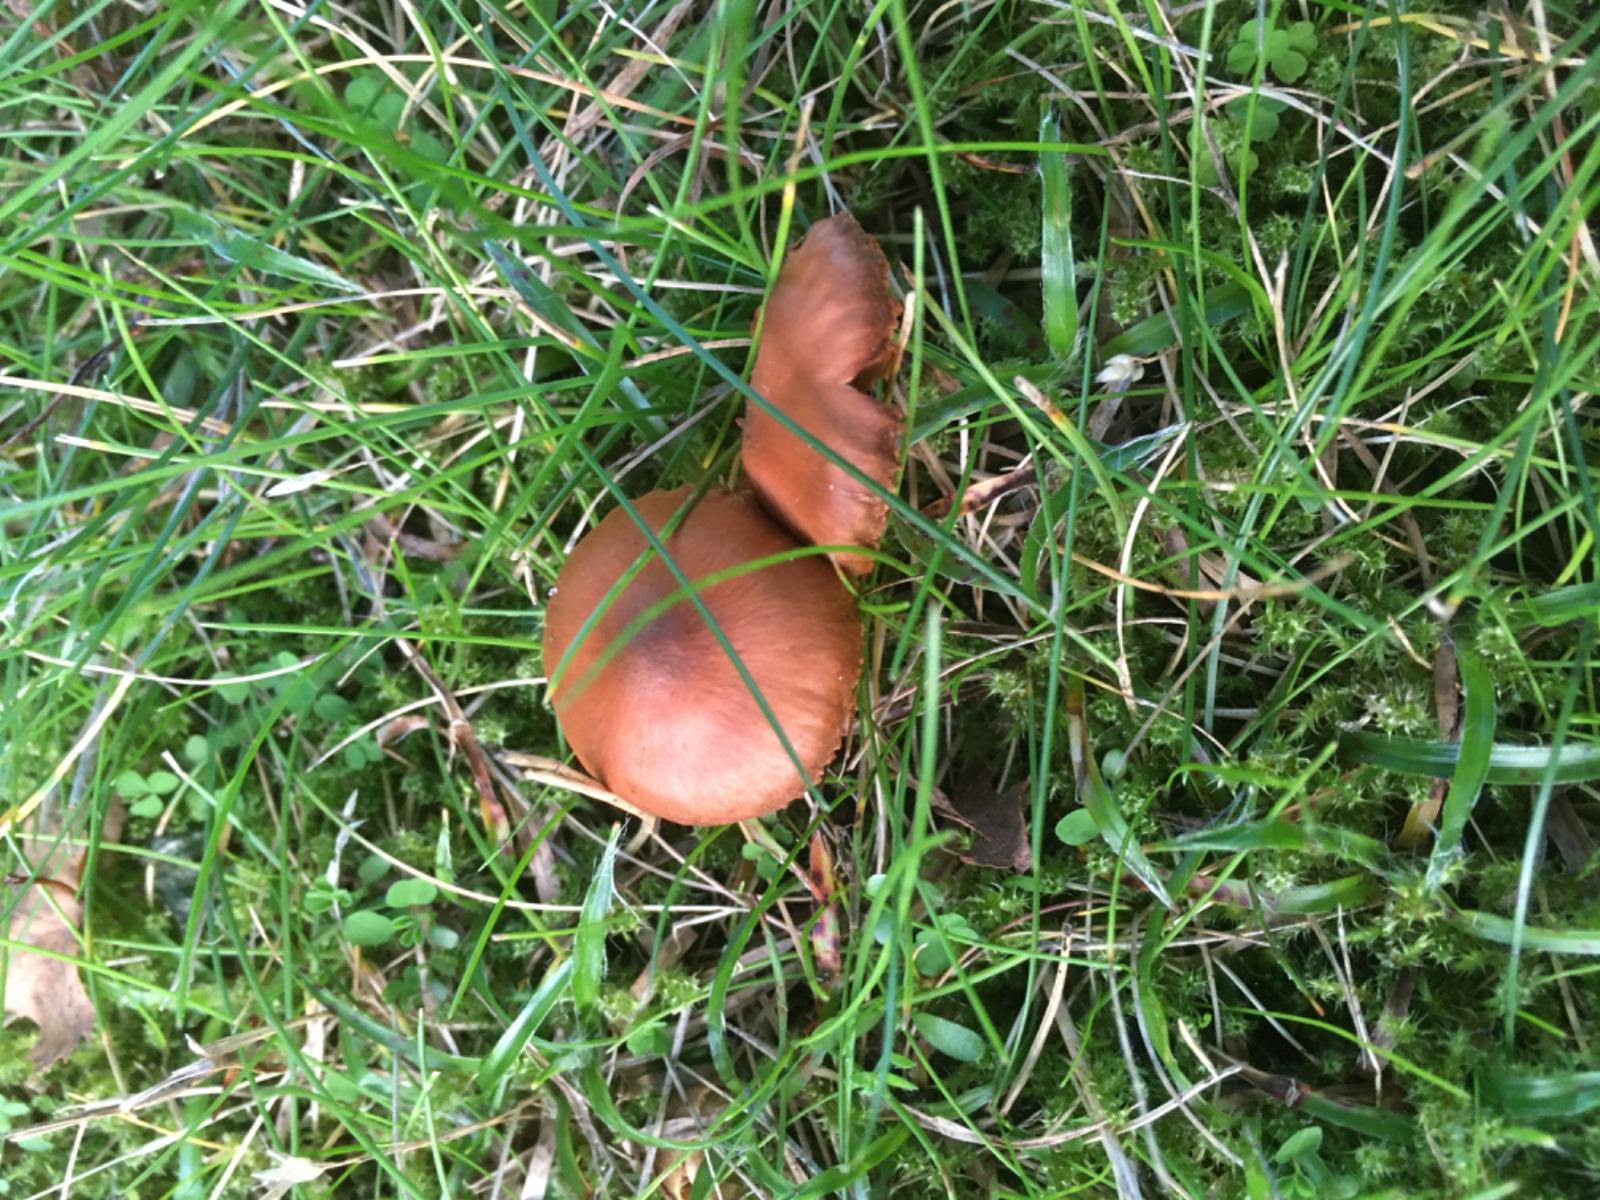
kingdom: Fungi
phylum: Basidiomycota
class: Agaricomycetes
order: Agaricales
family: Cortinariaceae
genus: Cortinarius
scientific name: Cortinarius
